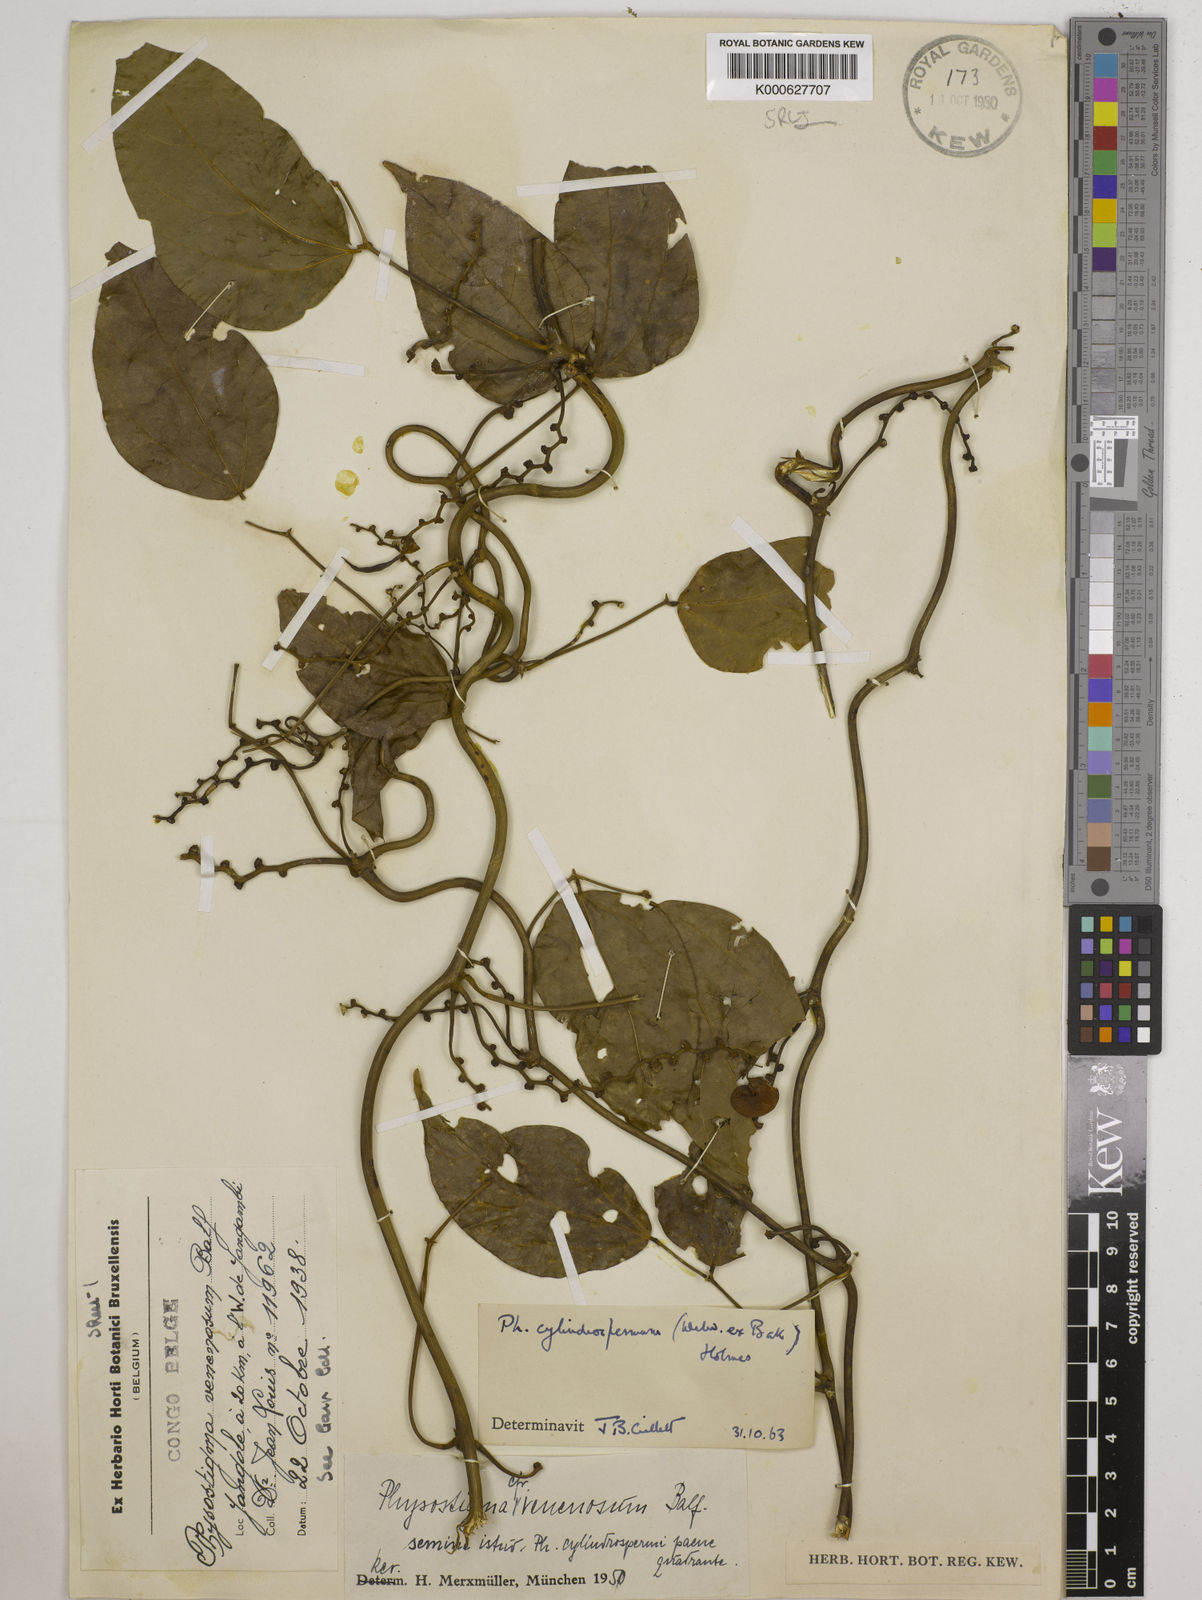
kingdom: Plantae
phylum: Tracheophyta
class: Magnoliopsida
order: Fabales
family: Fabaceae
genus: Physostigma
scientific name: Physostigma cylindrospermum
